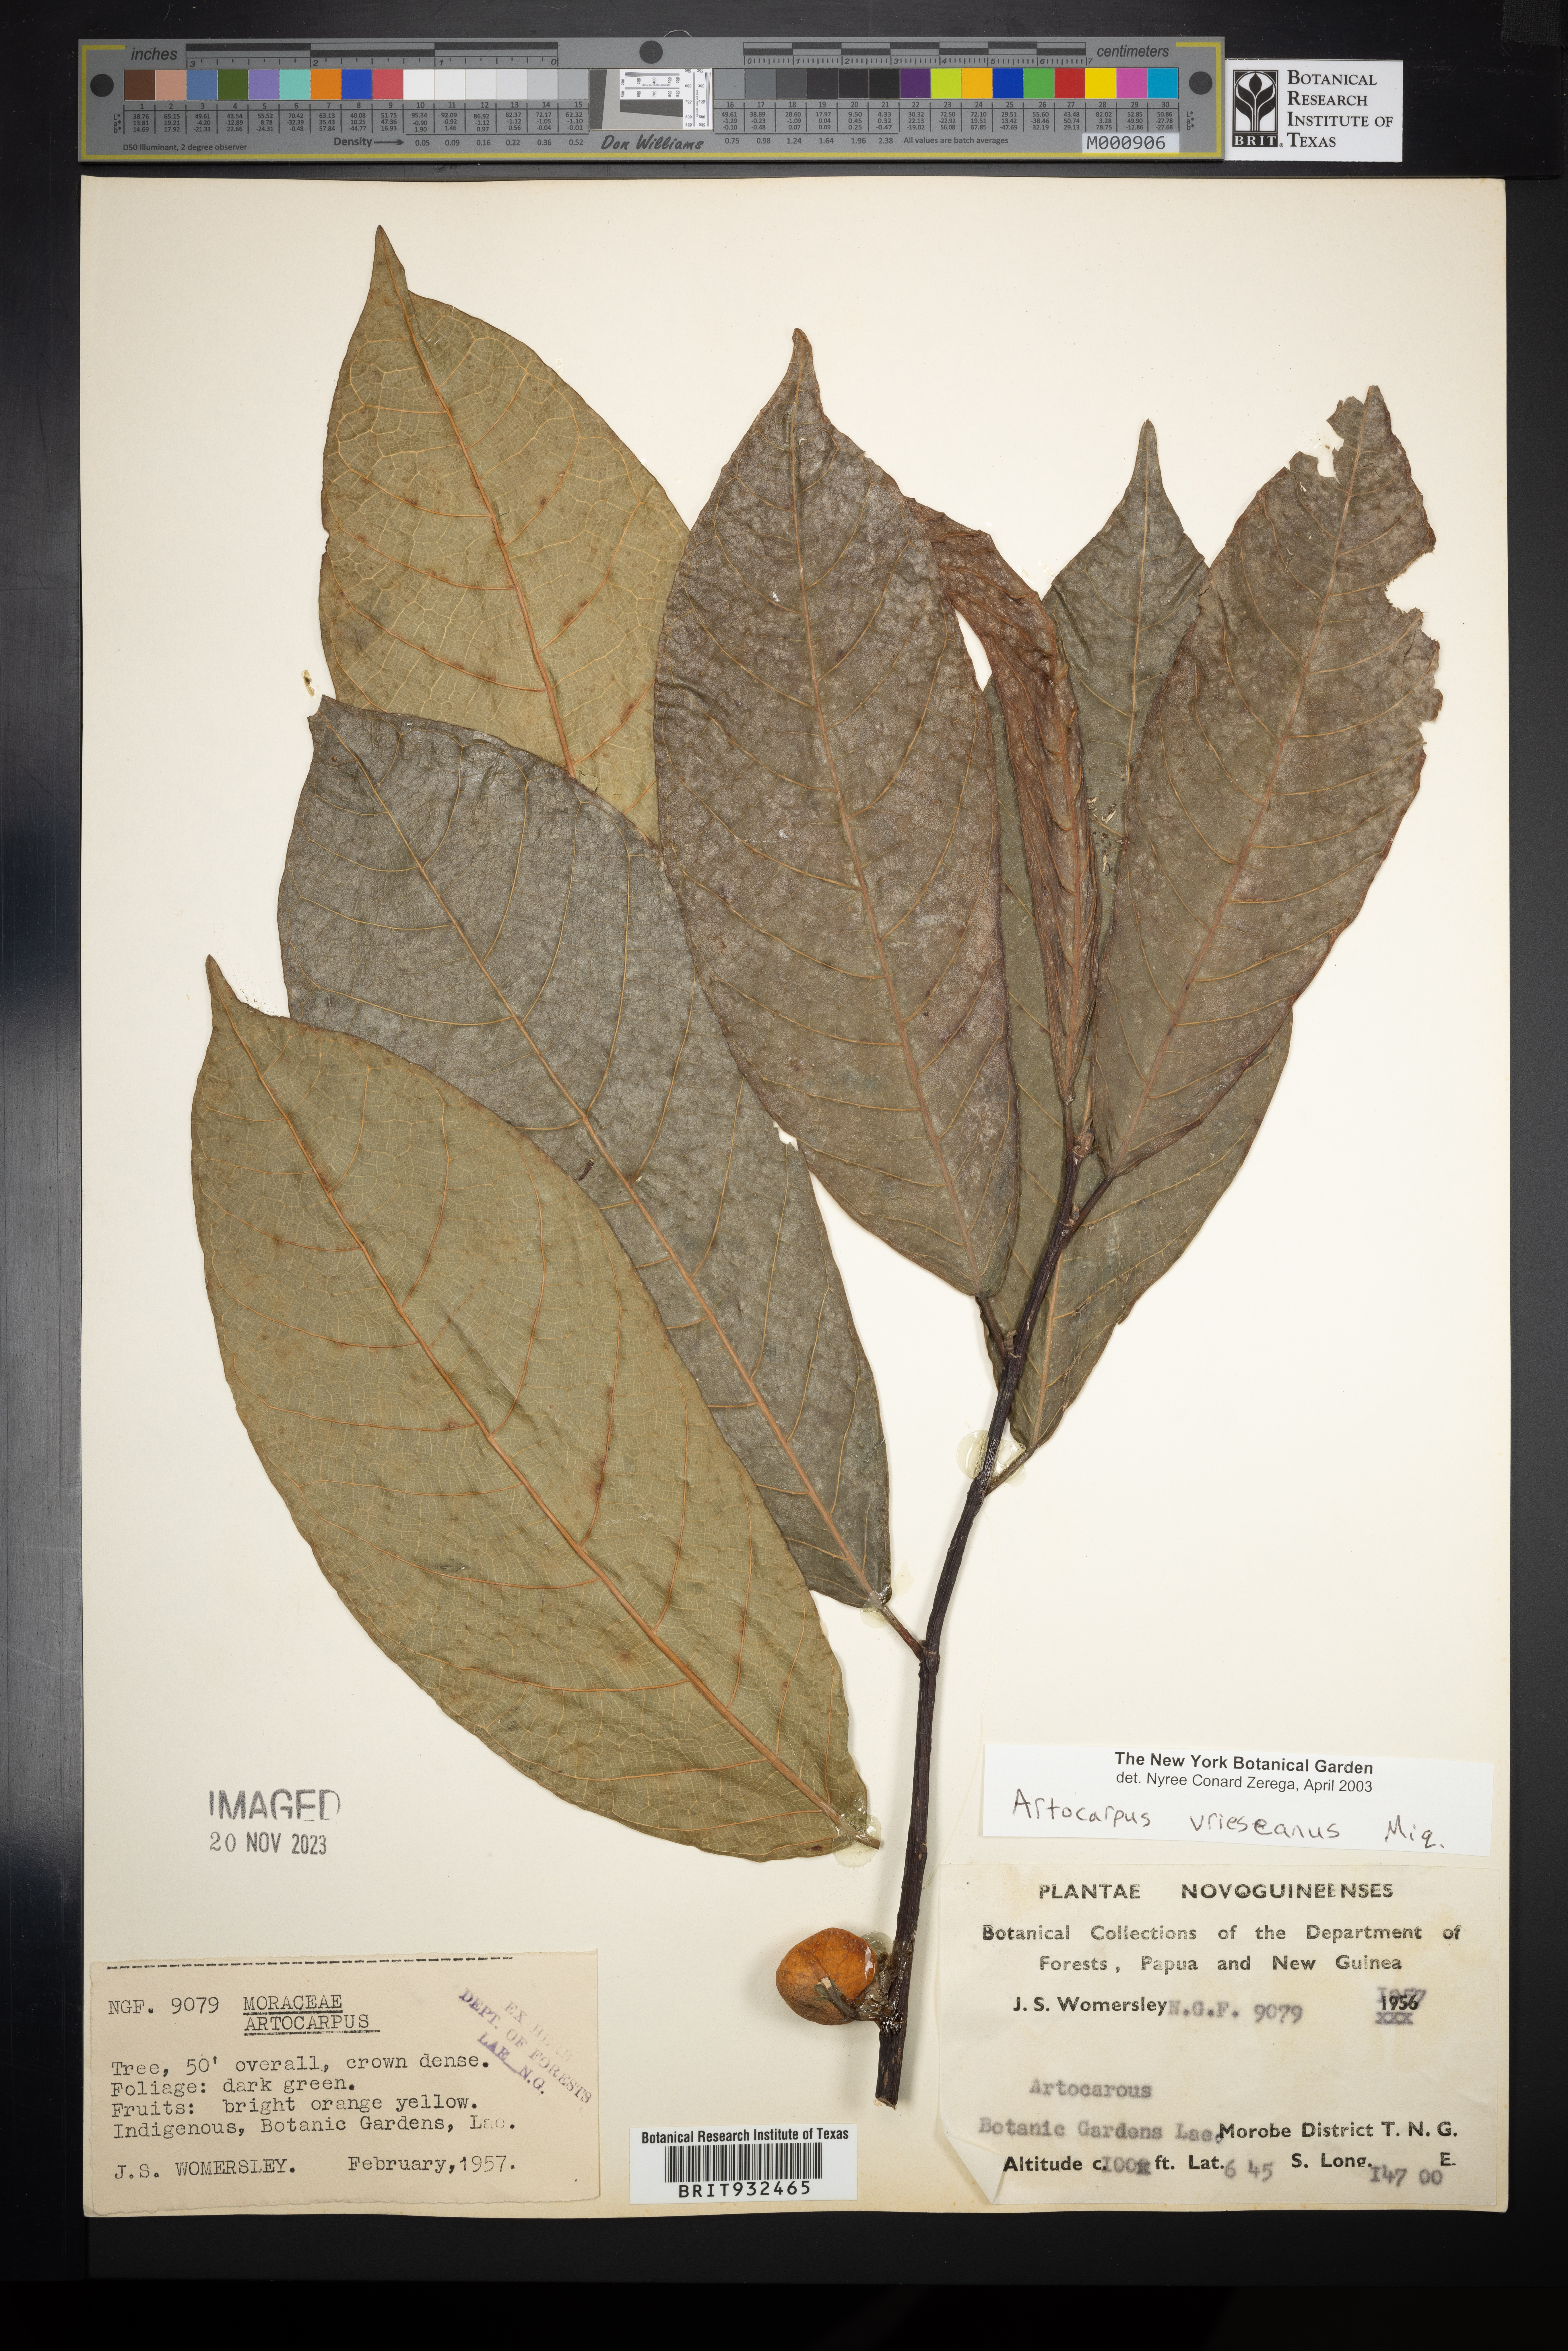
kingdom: Plantae
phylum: Tracheophyta
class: Magnoliopsida
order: Rosales
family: Moraceae
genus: Artocarpus
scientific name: Artocarpus
